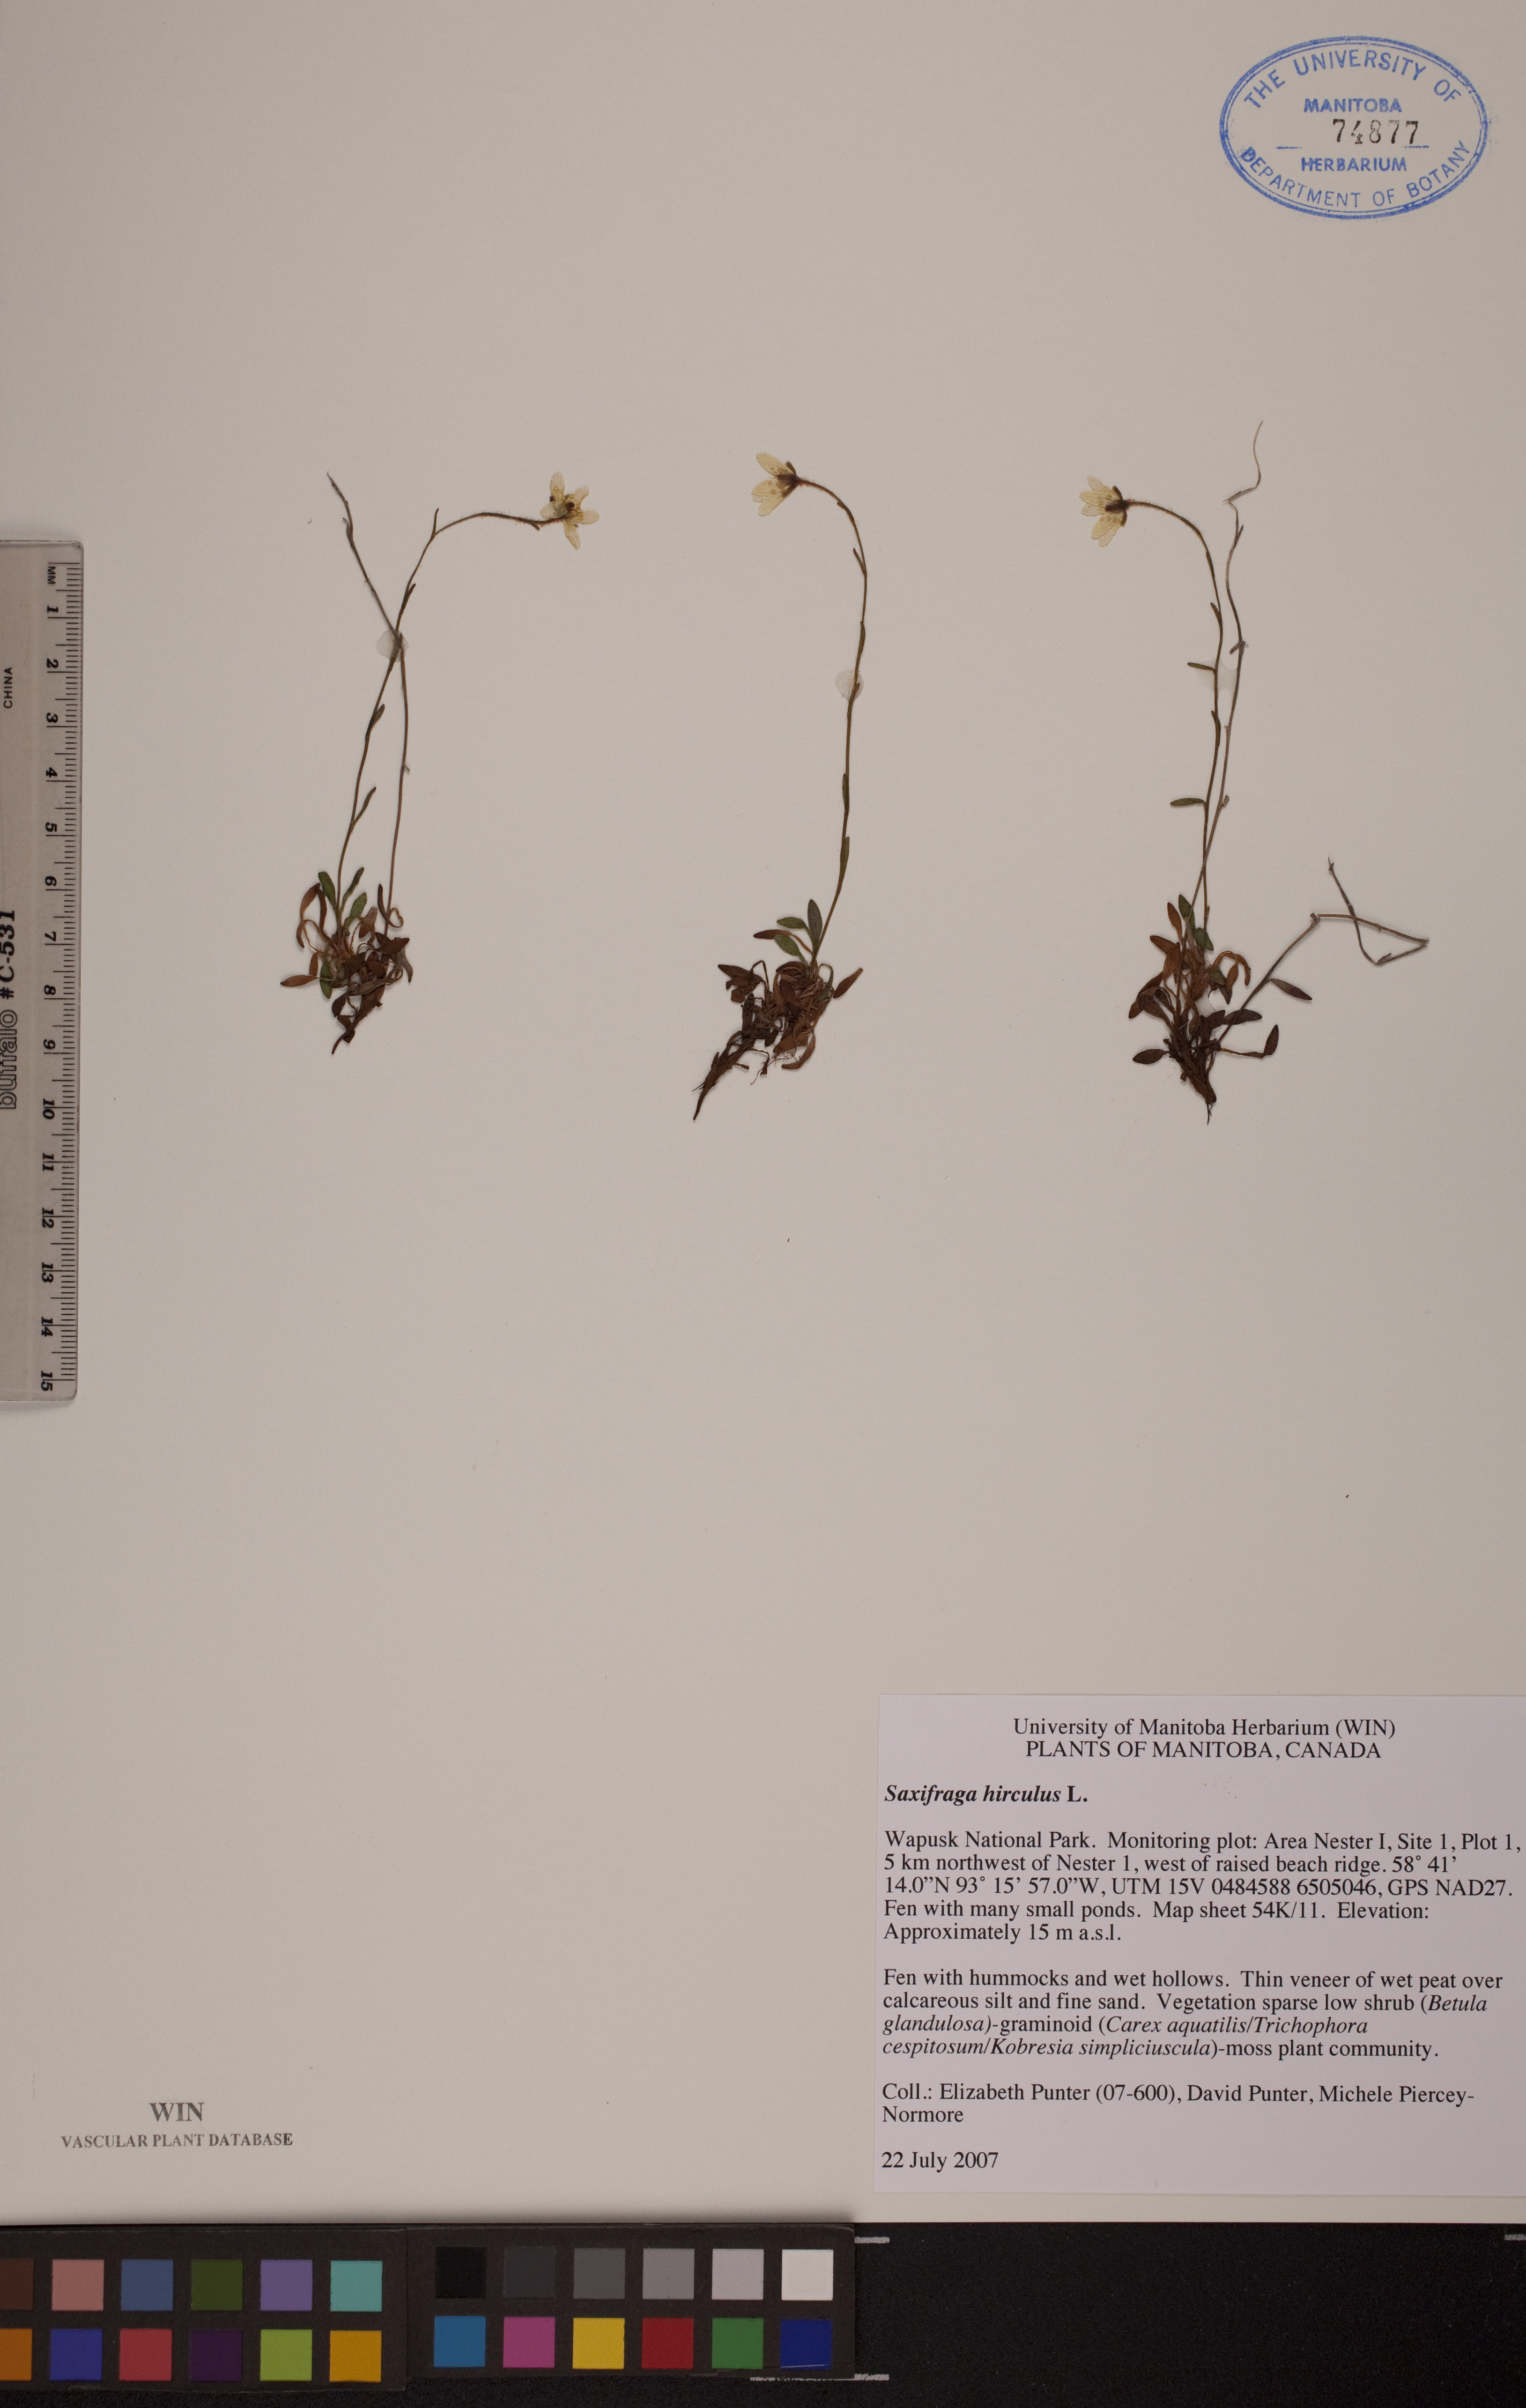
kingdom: Plantae
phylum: Tracheophyta
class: Magnoliopsida
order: Saxifragales
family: Saxifragaceae
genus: Saxifraga
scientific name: Saxifraga hirculus
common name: Yellow marsh saxifrage
